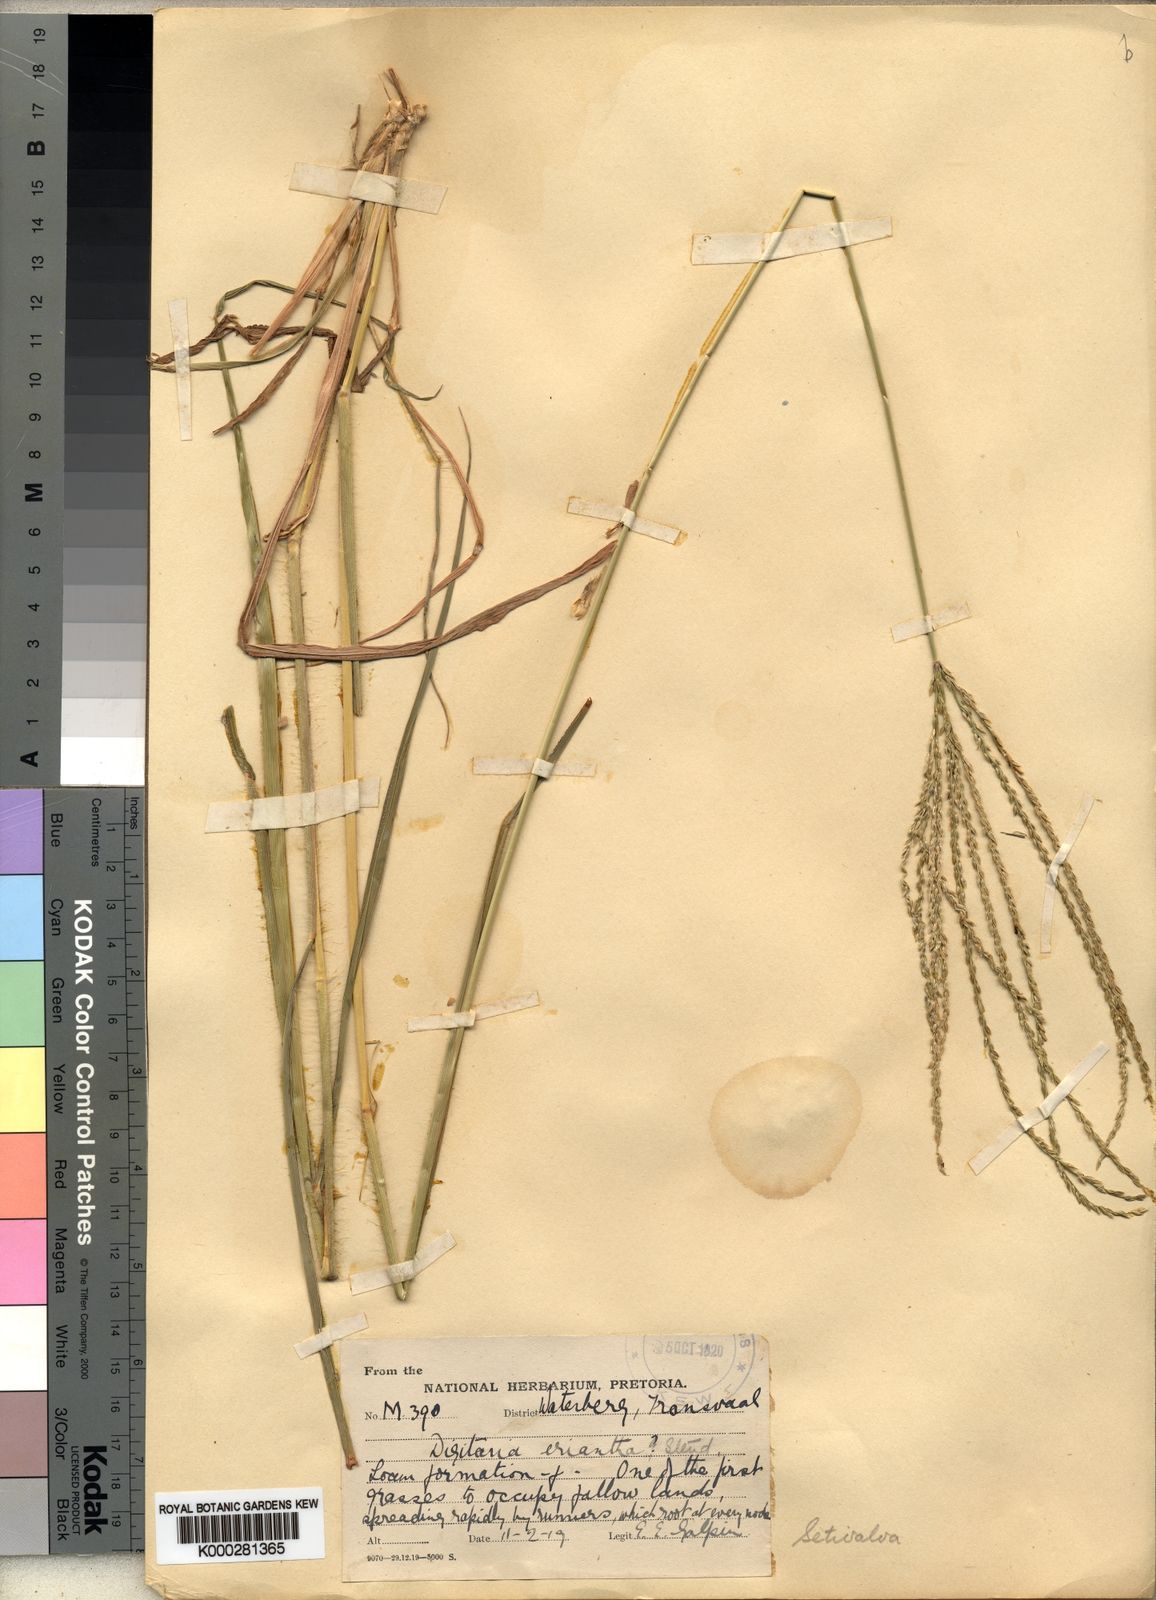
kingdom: Plantae
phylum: Tracheophyta
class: Liliopsida
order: Poales
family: Poaceae
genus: Digitaria
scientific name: Digitaria milanjiana
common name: Madagascar crabgrass
